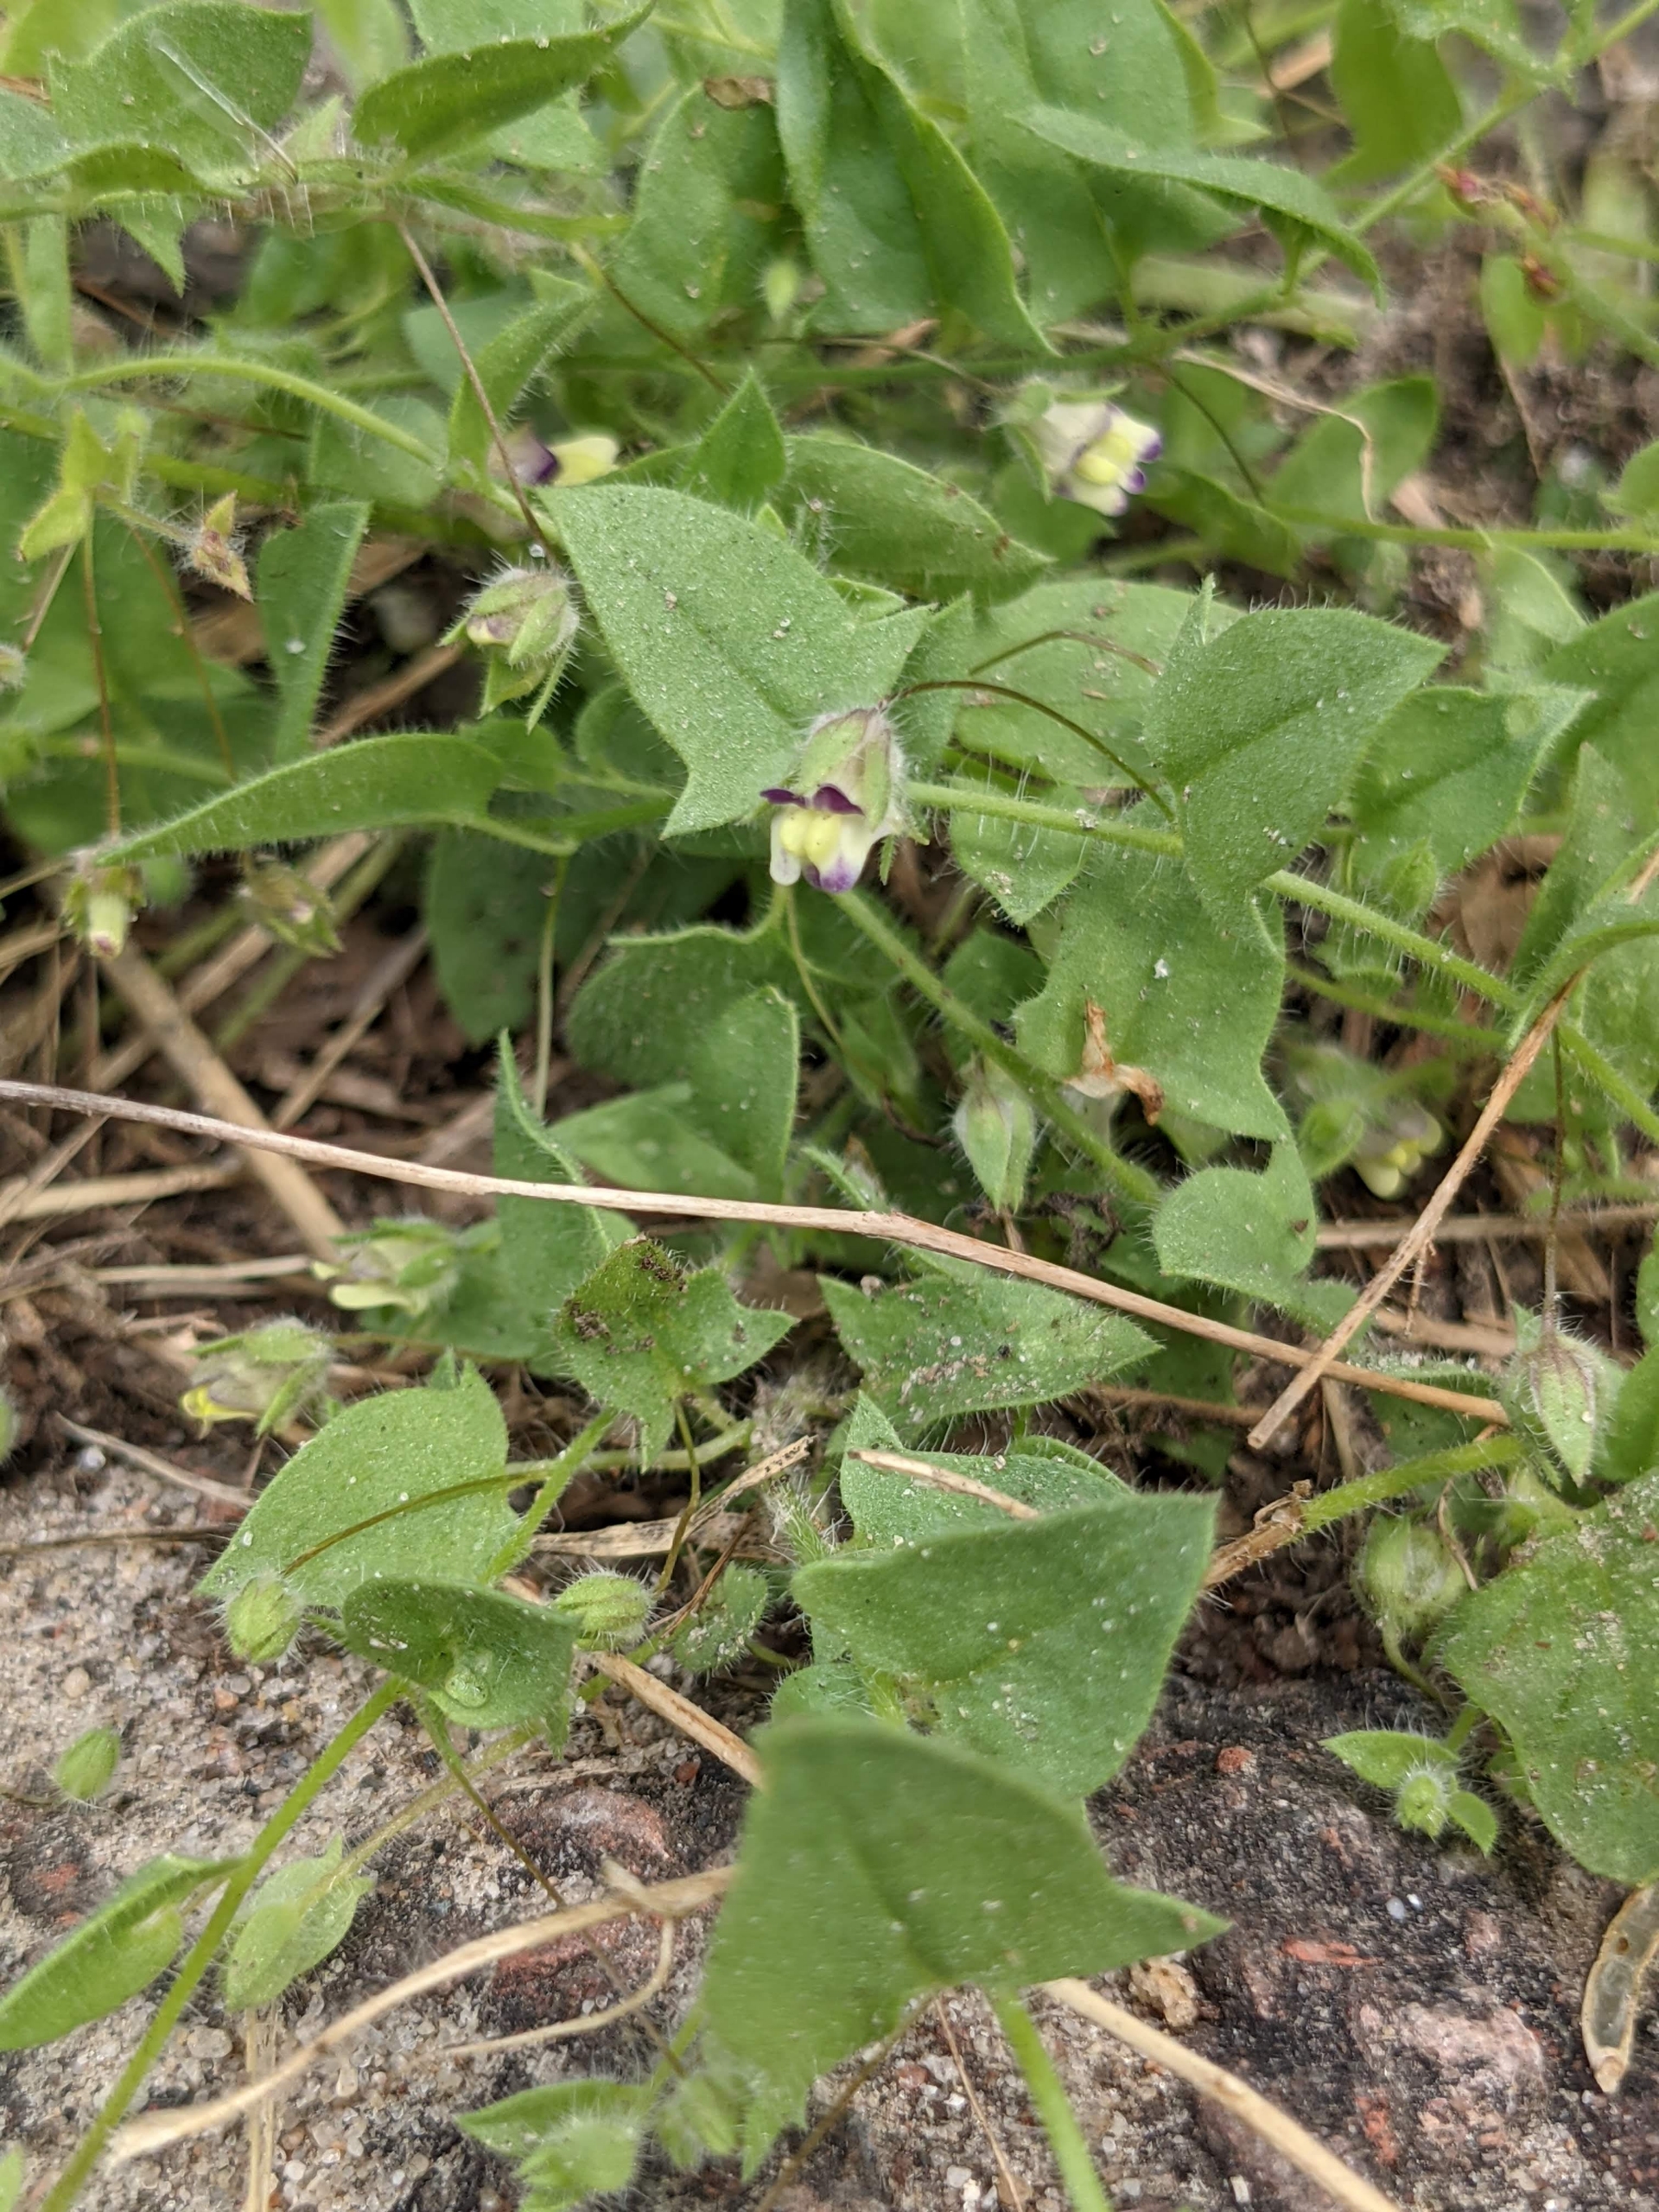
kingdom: Plantae
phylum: Tracheophyta
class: Magnoliopsida
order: Lamiales
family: Plantaginaceae
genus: Kickxia
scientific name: Kickxia elatine
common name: Spydbladet torskemund
